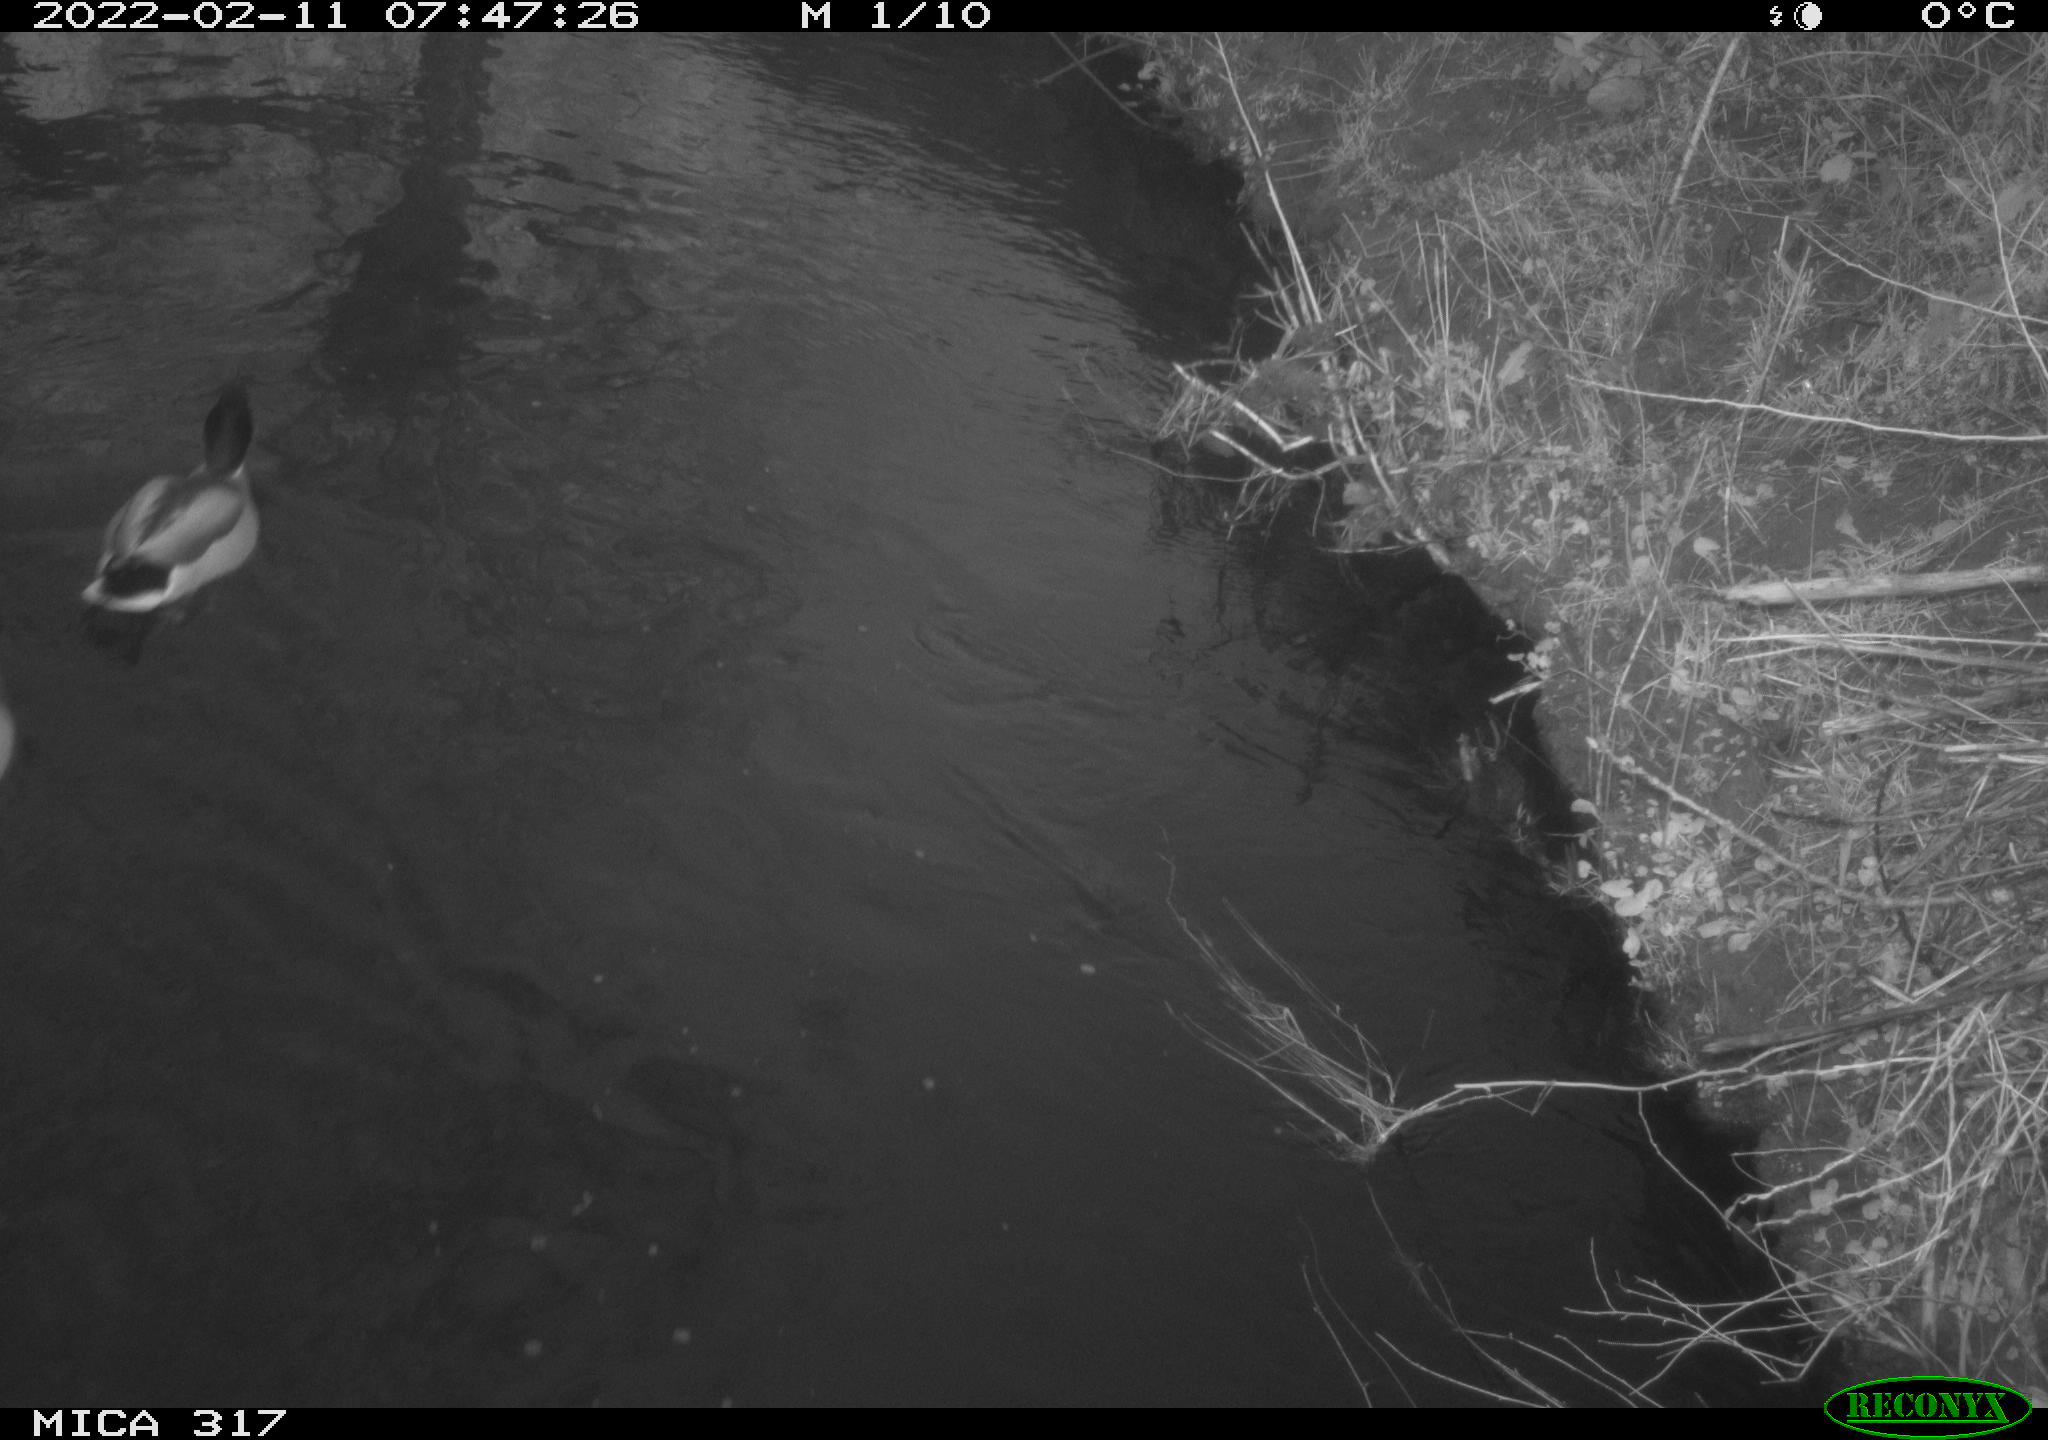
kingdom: Animalia
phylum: Chordata
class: Aves
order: Anseriformes
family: Anatidae
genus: Anas
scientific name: Anas platyrhynchos
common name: Mallard
